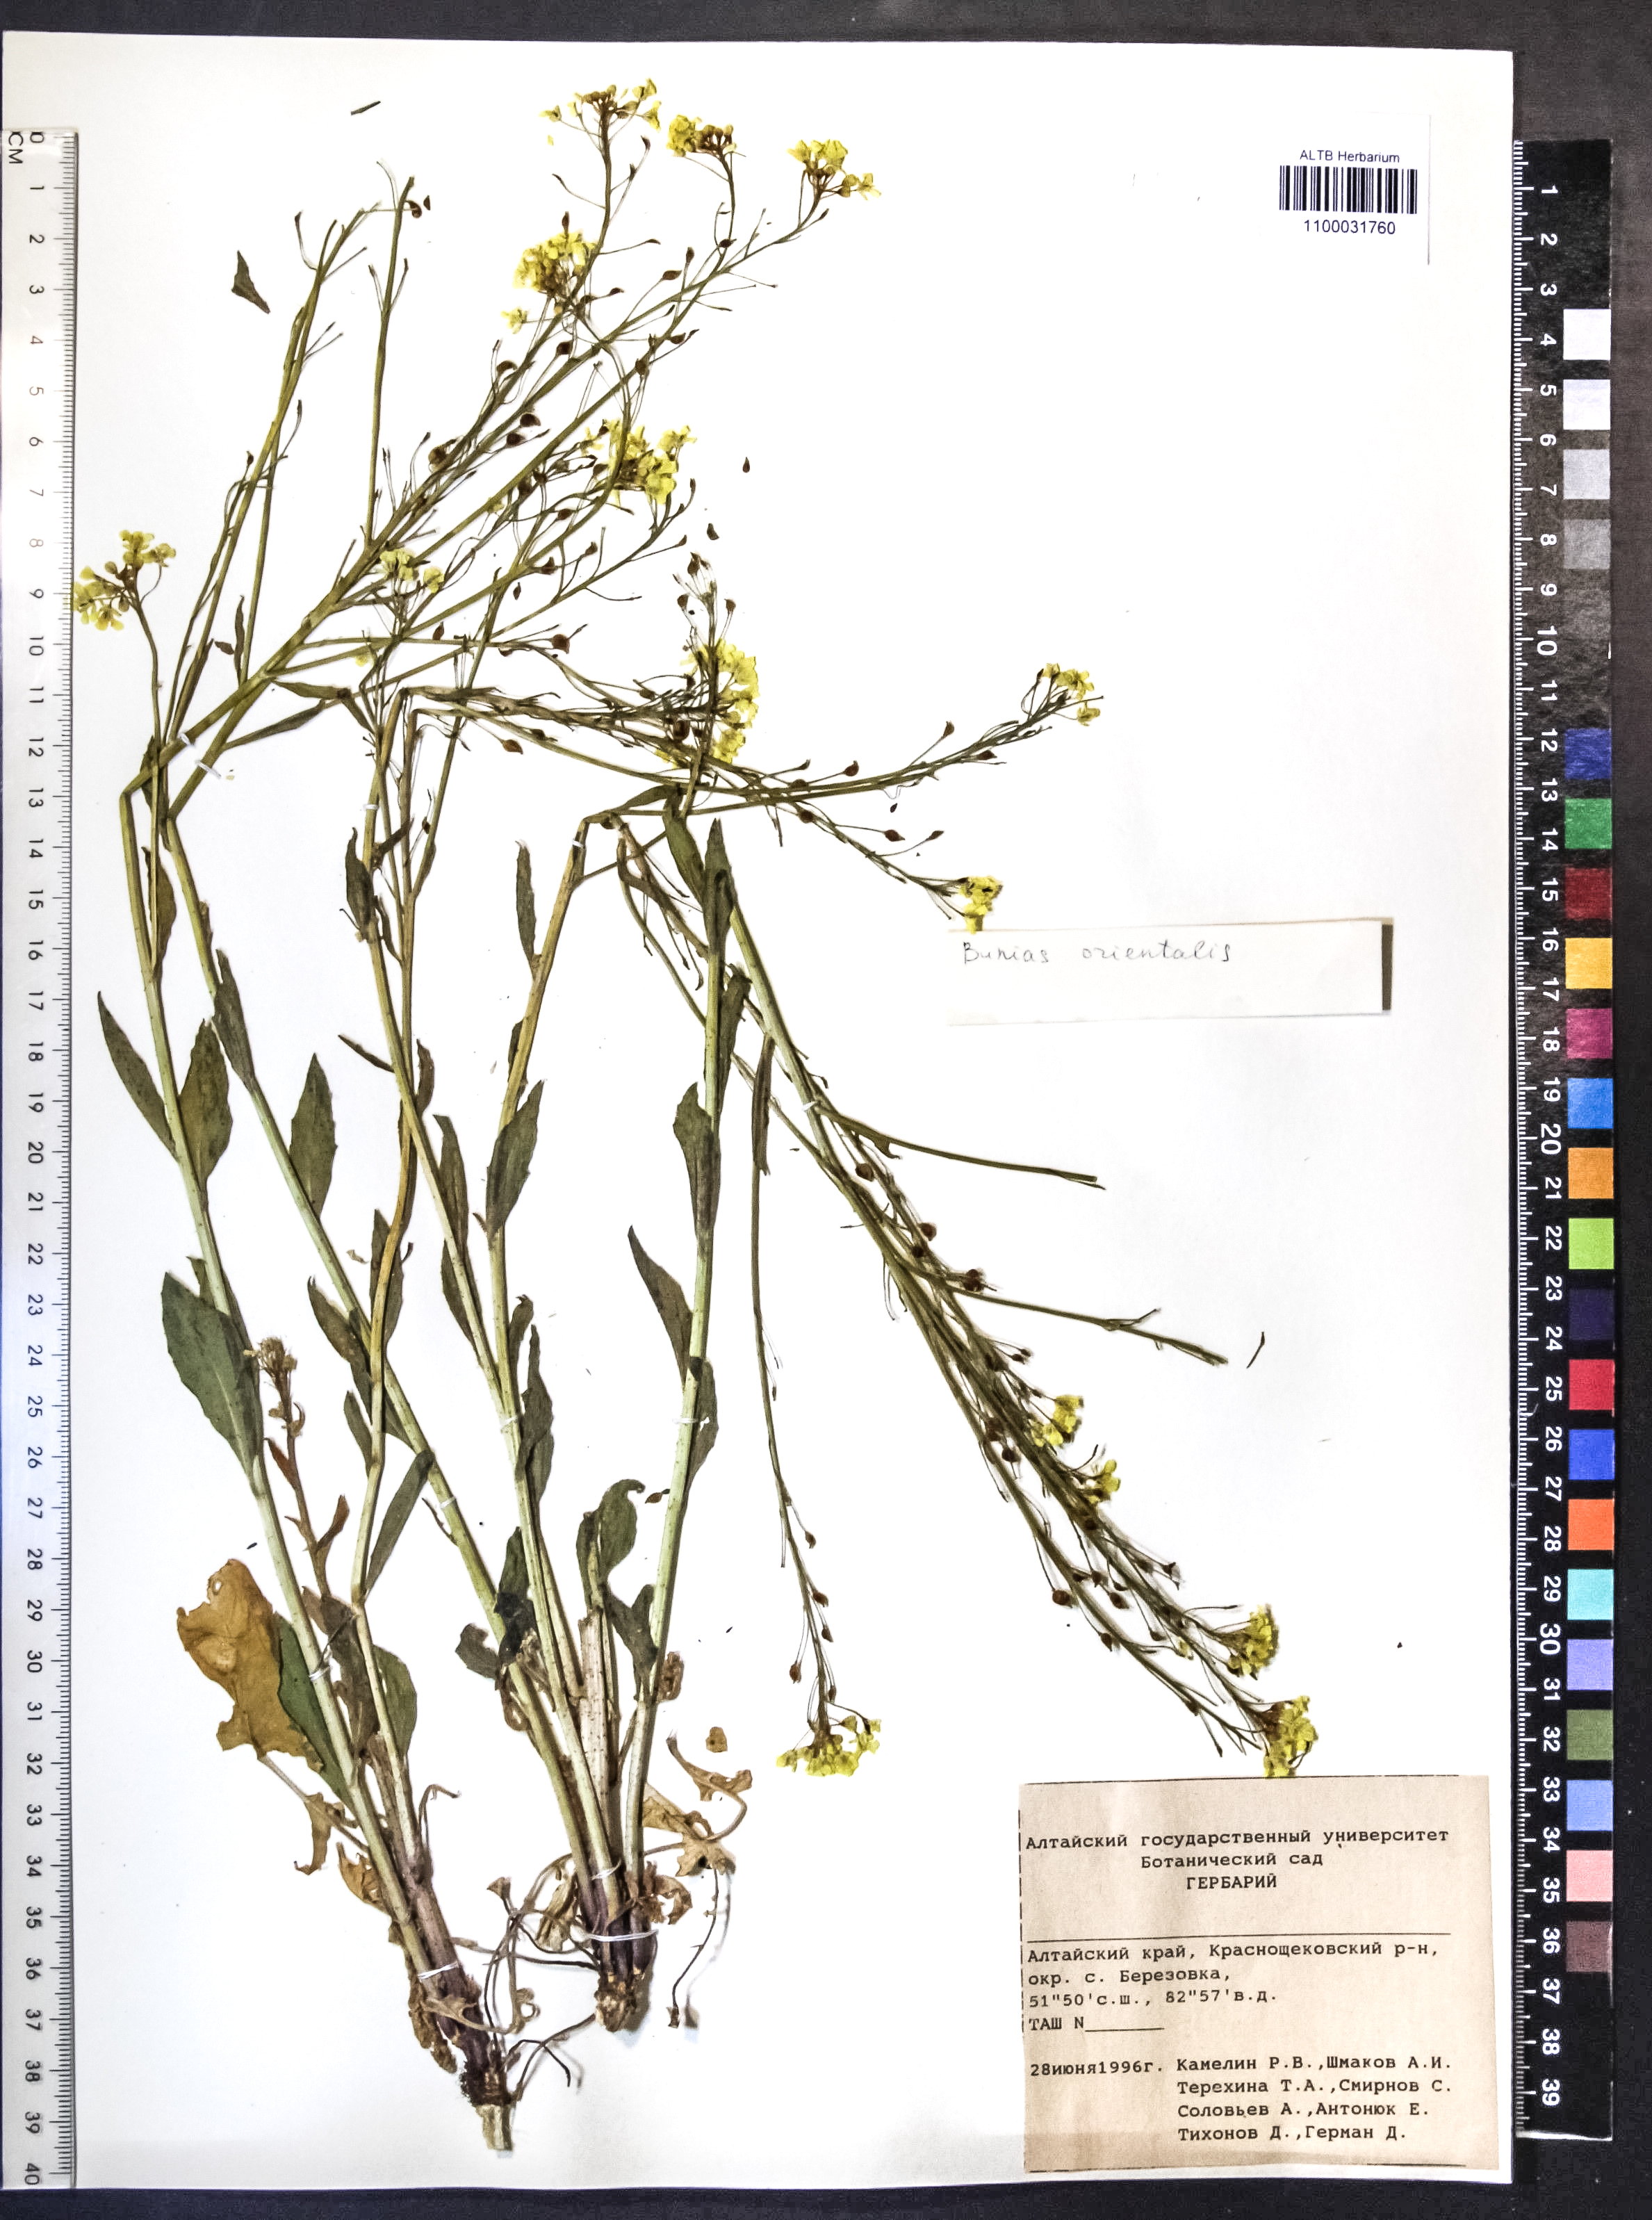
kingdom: Plantae
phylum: Tracheophyta
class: Magnoliopsida
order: Brassicales
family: Brassicaceae
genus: Bunias
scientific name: Bunias orientalis
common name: Warty-cabbage
